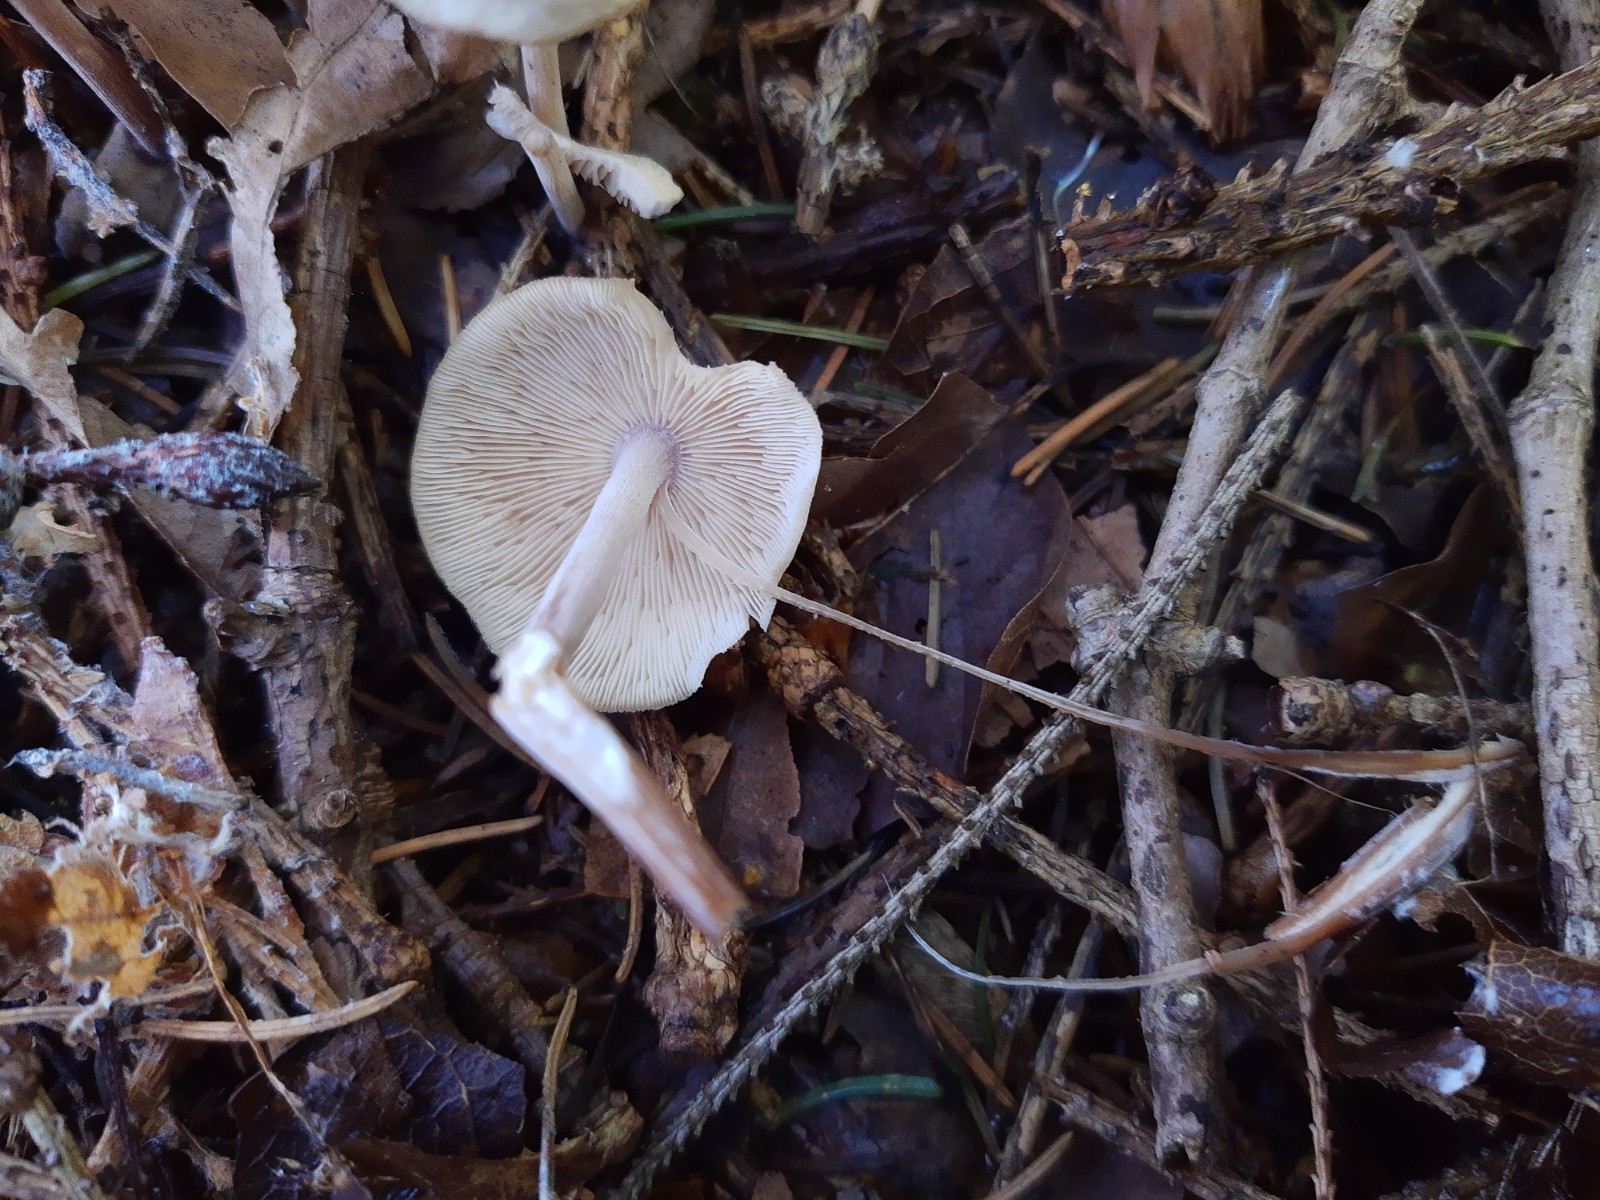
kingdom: Fungi
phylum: Basidiomycota
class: Agaricomycetes
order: Agaricales
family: Omphalotaceae
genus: Collybiopsis
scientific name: Collybiopsis confluens
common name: knippe-fladhat
